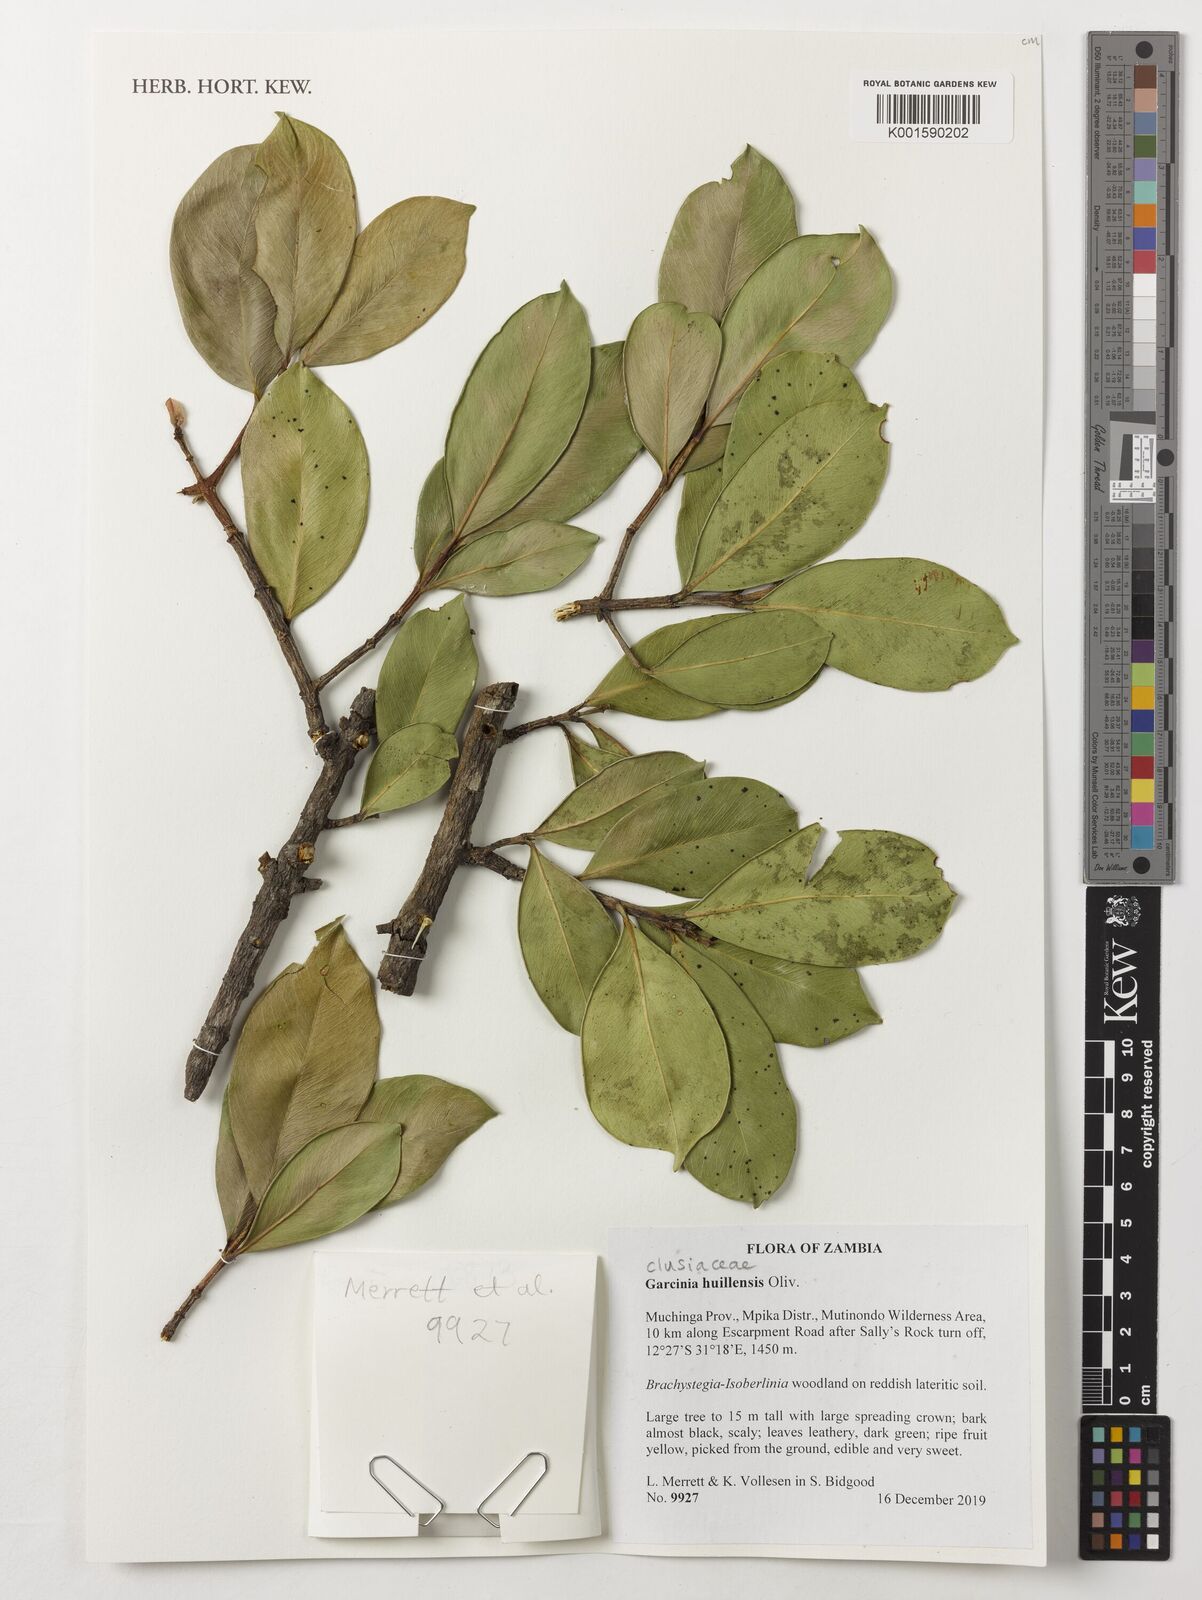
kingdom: Plantae
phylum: Tracheophyta
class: Magnoliopsida
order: Malpighiales
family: Clusiaceae
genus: Garcinia
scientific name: Garcinia huillensis
